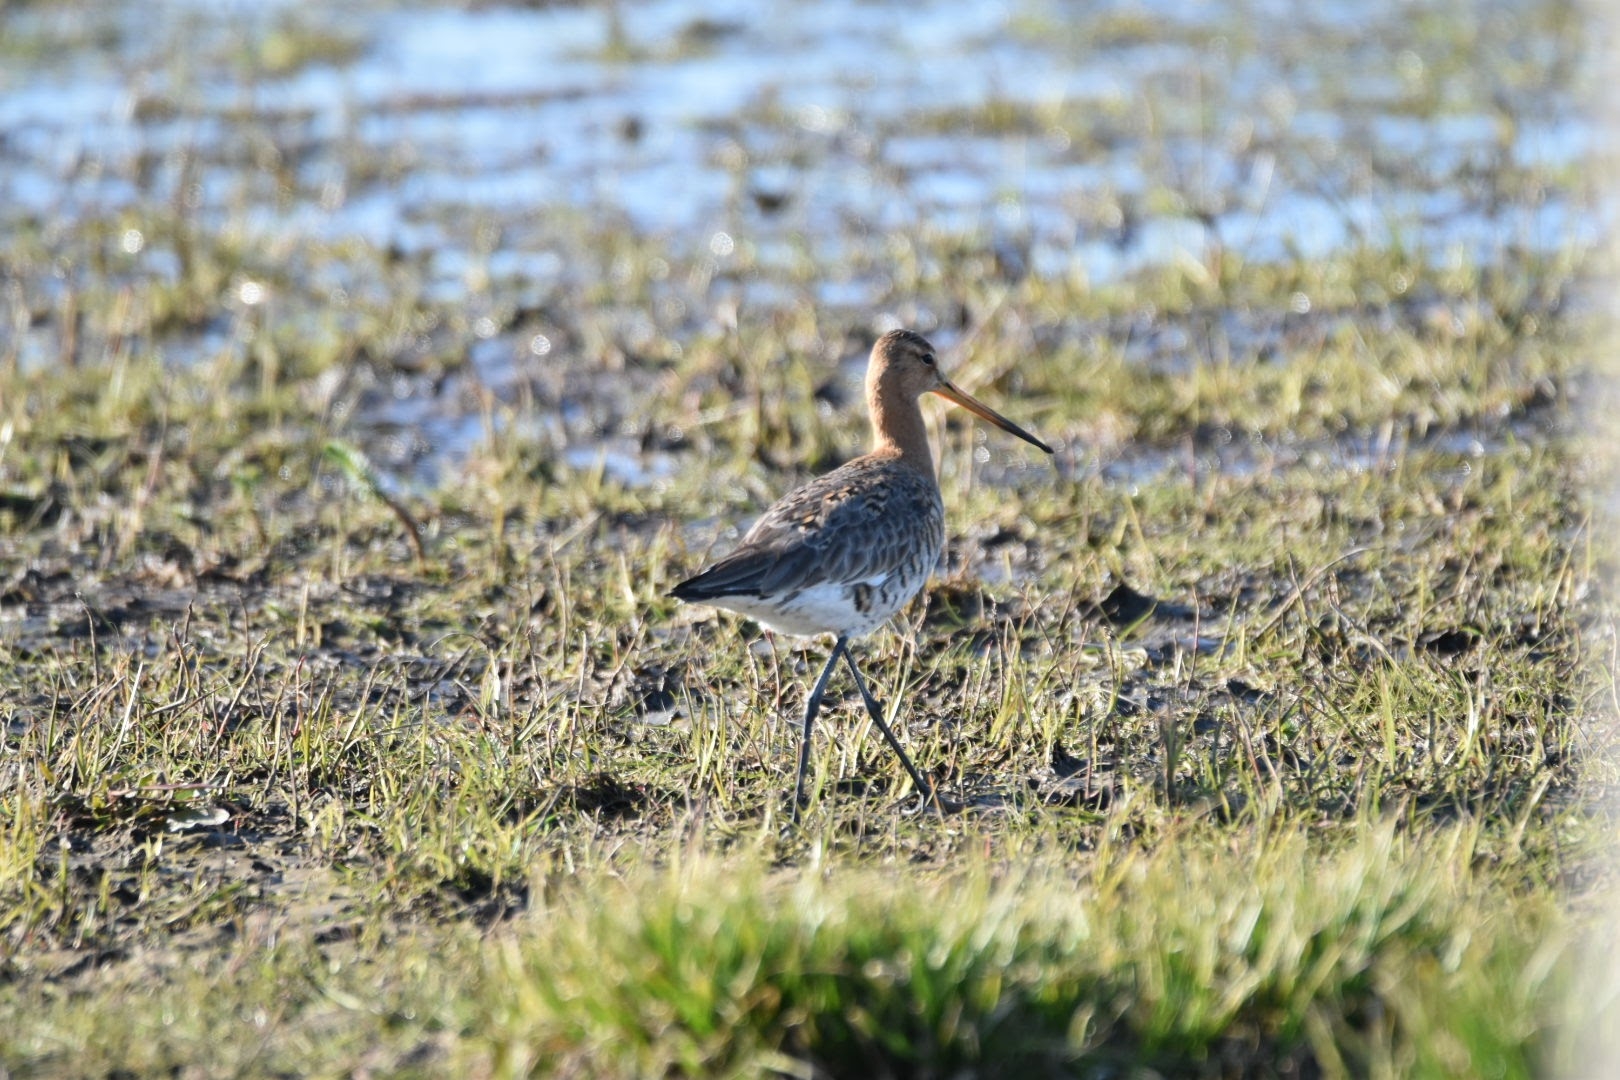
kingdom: Animalia
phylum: Chordata
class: Aves
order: Charadriiformes
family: Scolopacidae
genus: Limosa
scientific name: Limosa limosa
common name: Stor kobbersneppe
